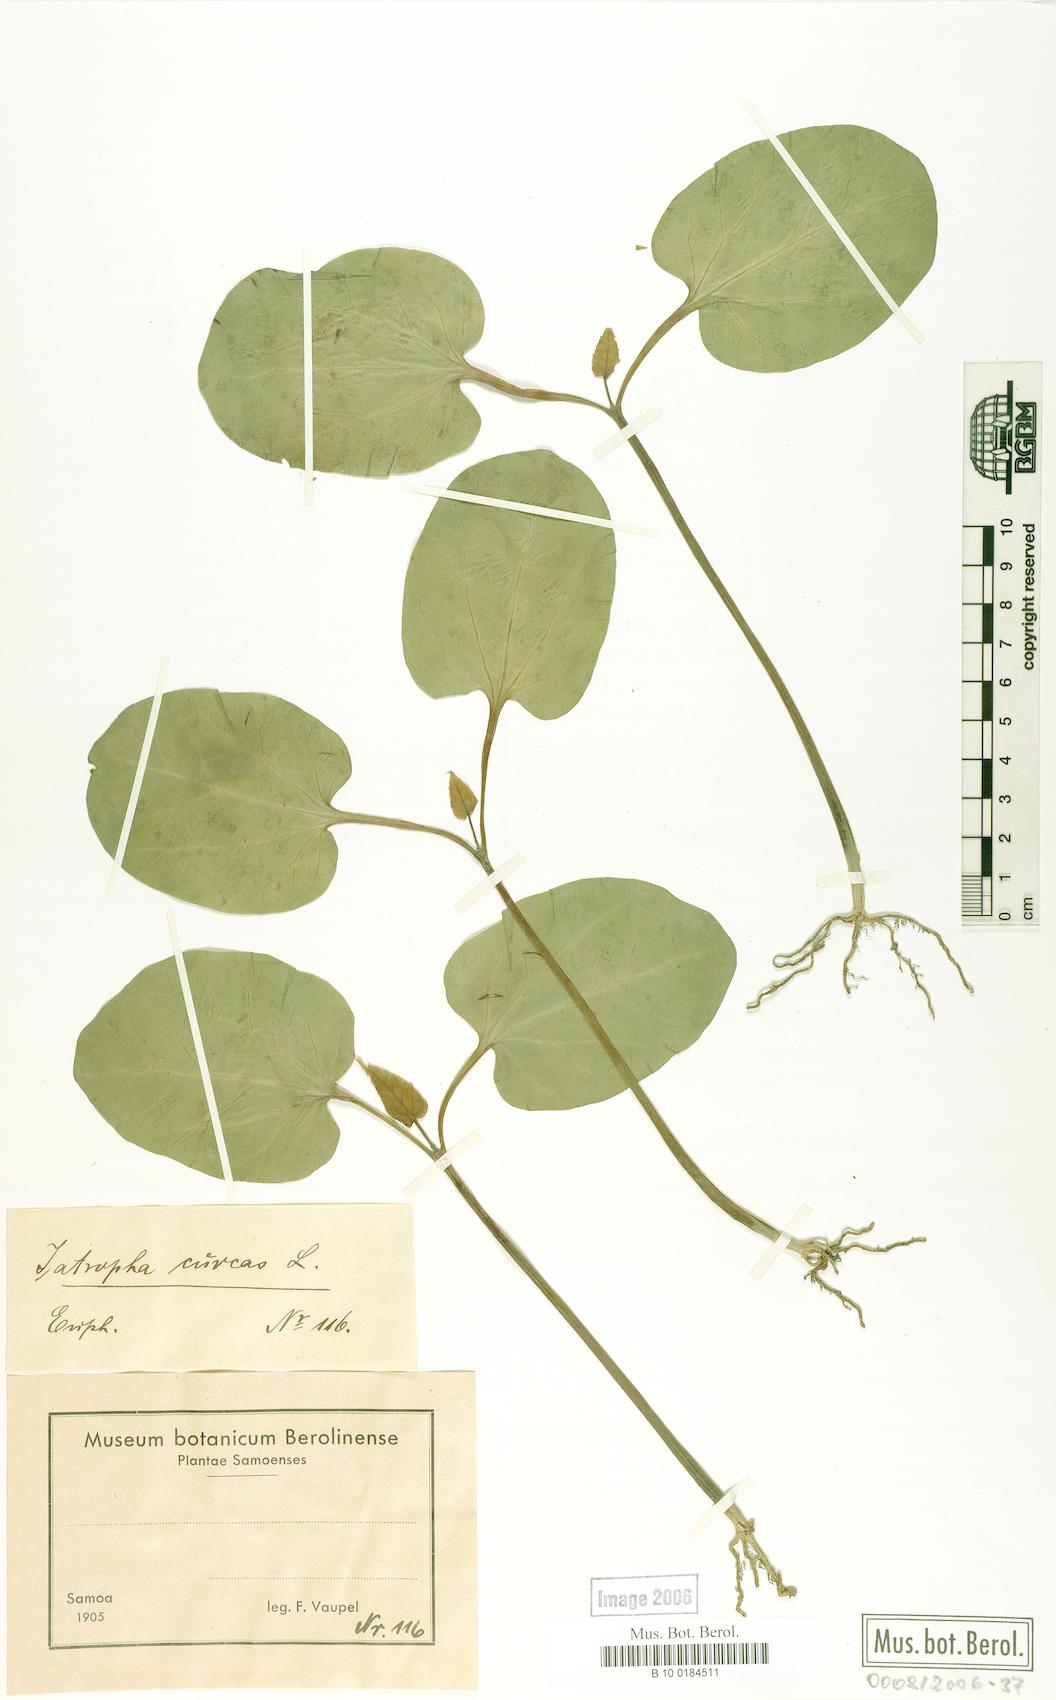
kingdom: Plantae
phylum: Tracheophyta
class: Magnoliopsida
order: Malpighiales
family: Euphorbiaceae
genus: Jatropha
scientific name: Jatropha curcas
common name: Barbados nut
